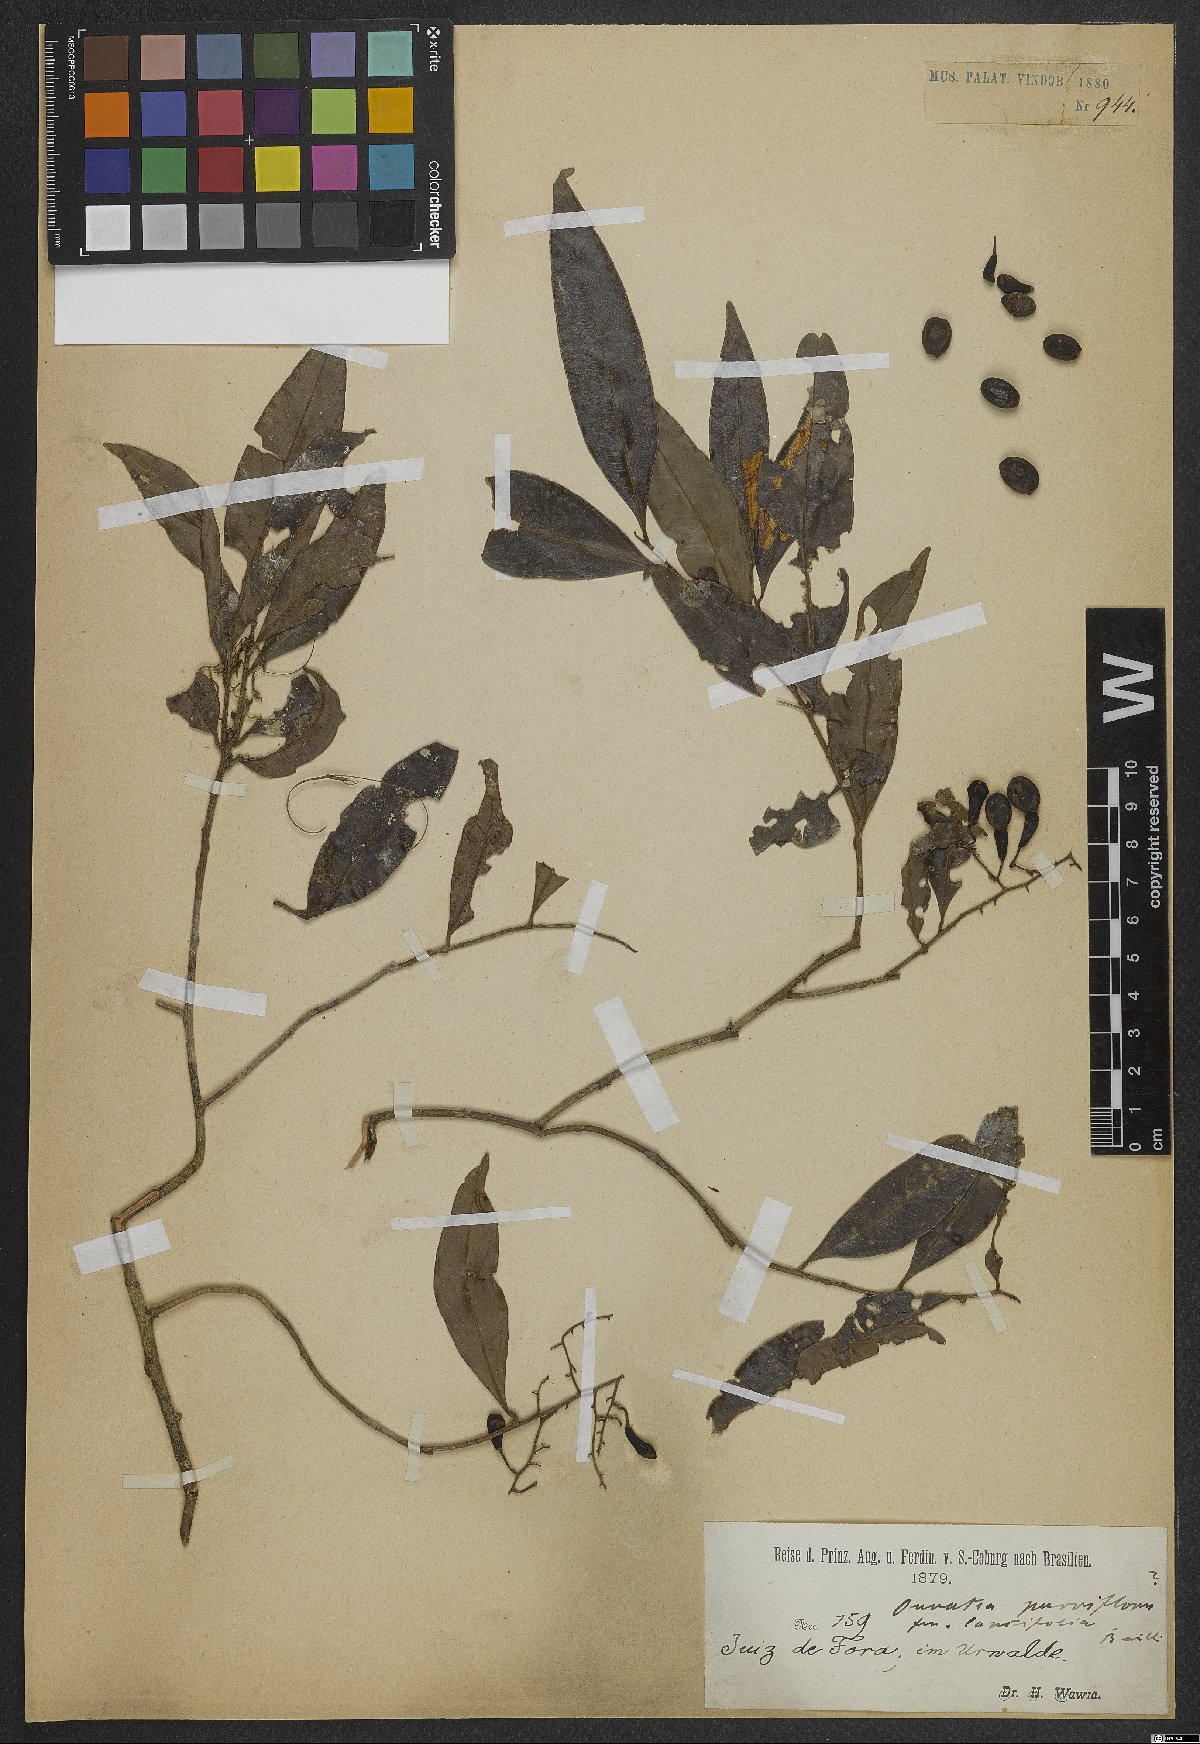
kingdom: Plantae
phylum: Tracheophyta
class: Magnoliopsida
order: Malpighiales
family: Ochnaceae
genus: Ouratea
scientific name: Ouratea parviflora
